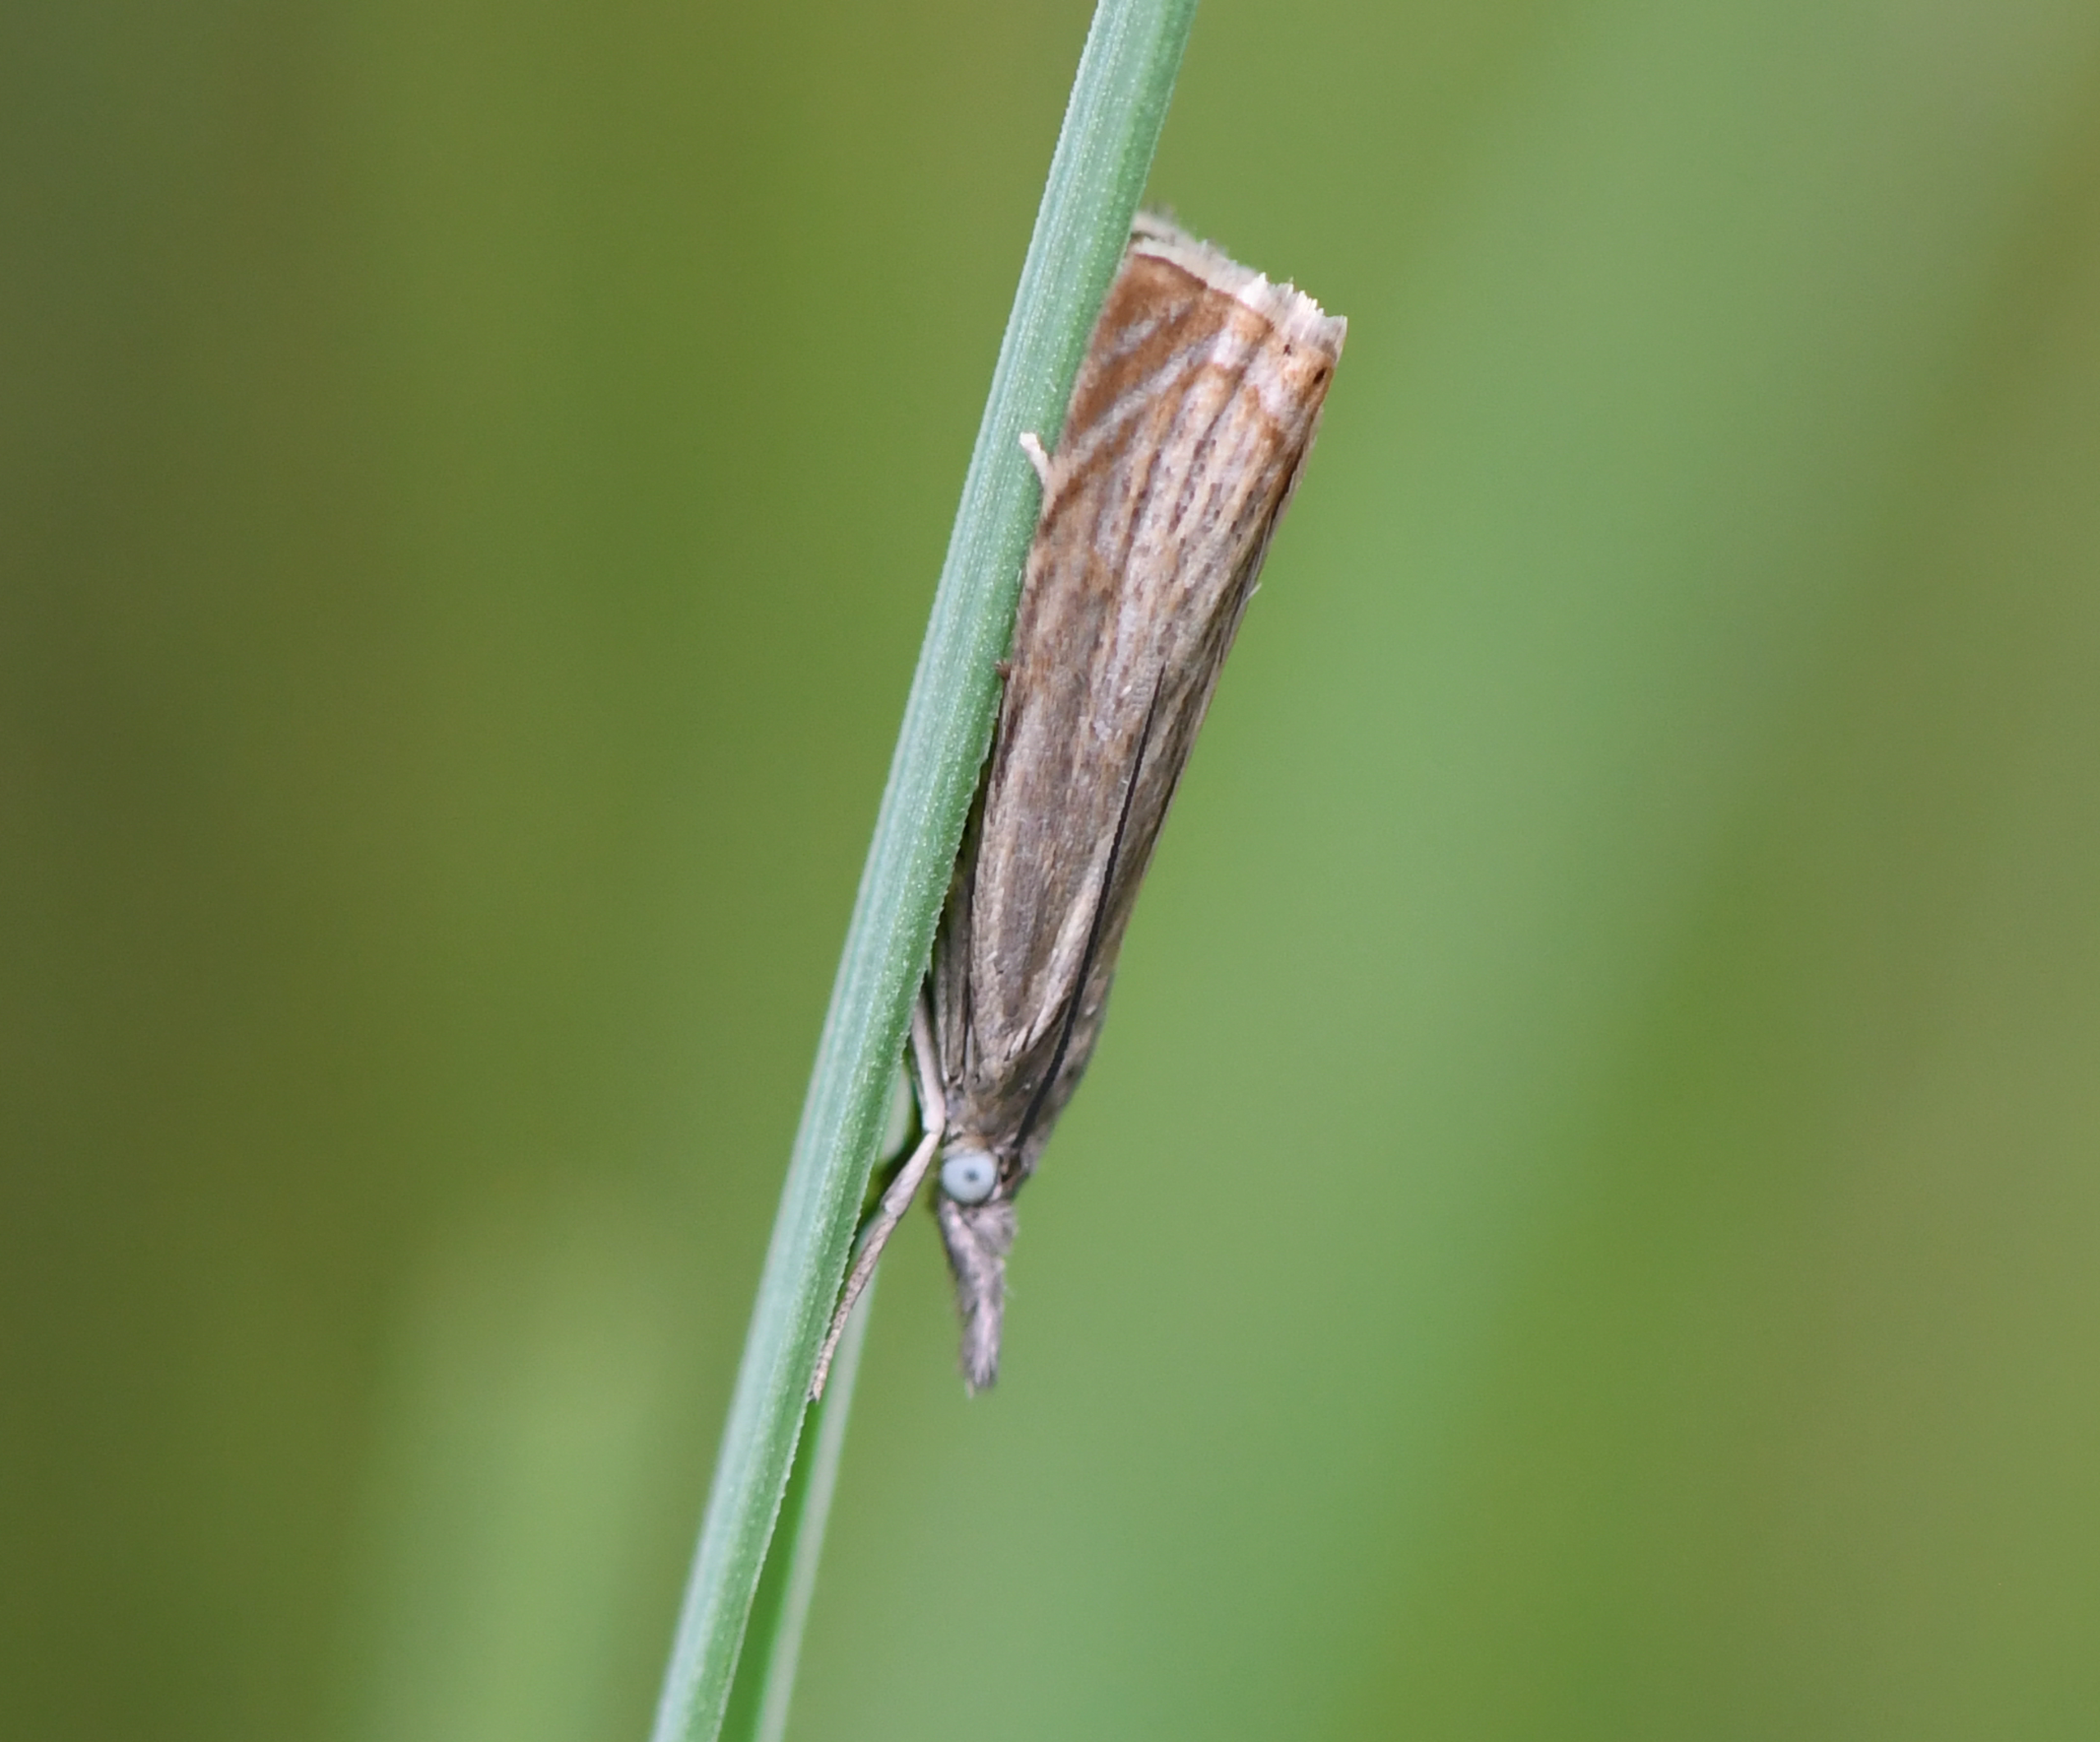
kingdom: Animalia
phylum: Arthropoda
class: Insecta
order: Lepidoptera
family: Crambidae
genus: Chrysoteuchia
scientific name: Chrysoteuchia culmella
